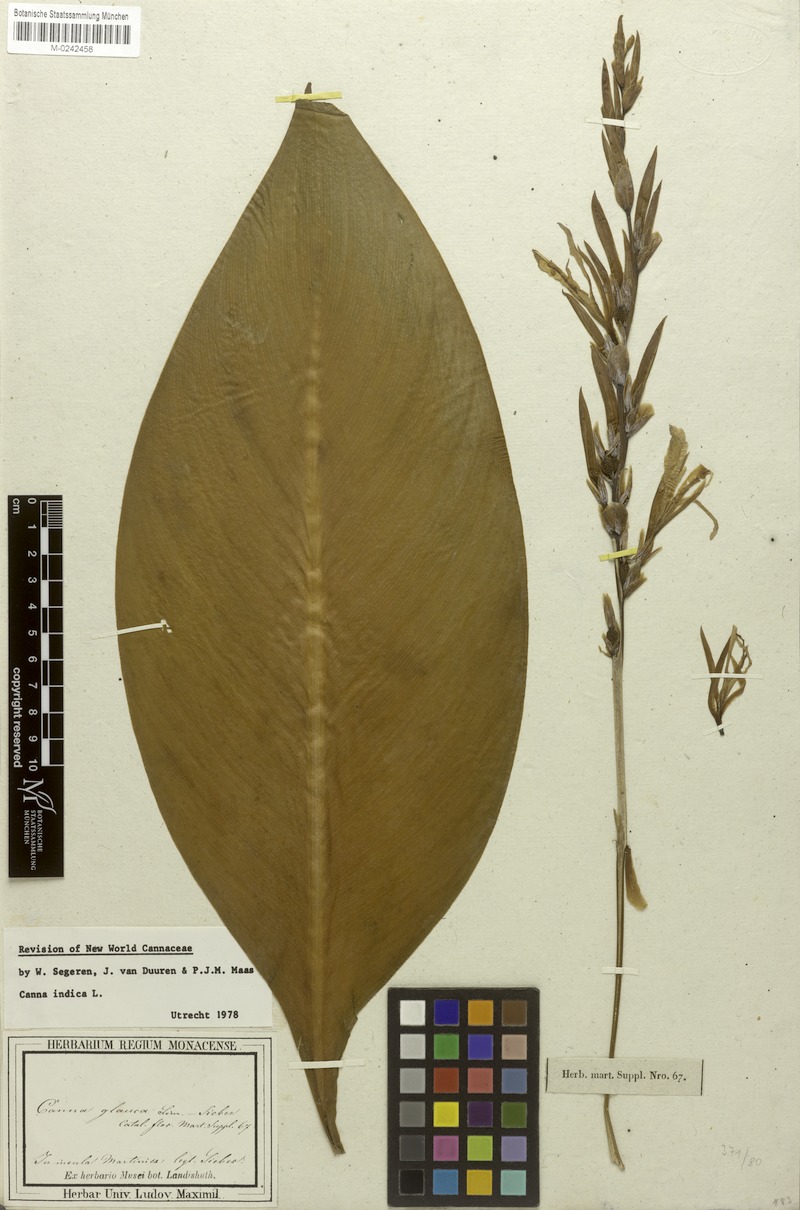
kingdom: Plantae
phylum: Tracheophyta
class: Liliopsida
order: Zingiberales
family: Cannaceae
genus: Canna
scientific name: Canna indica
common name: Indian shot
